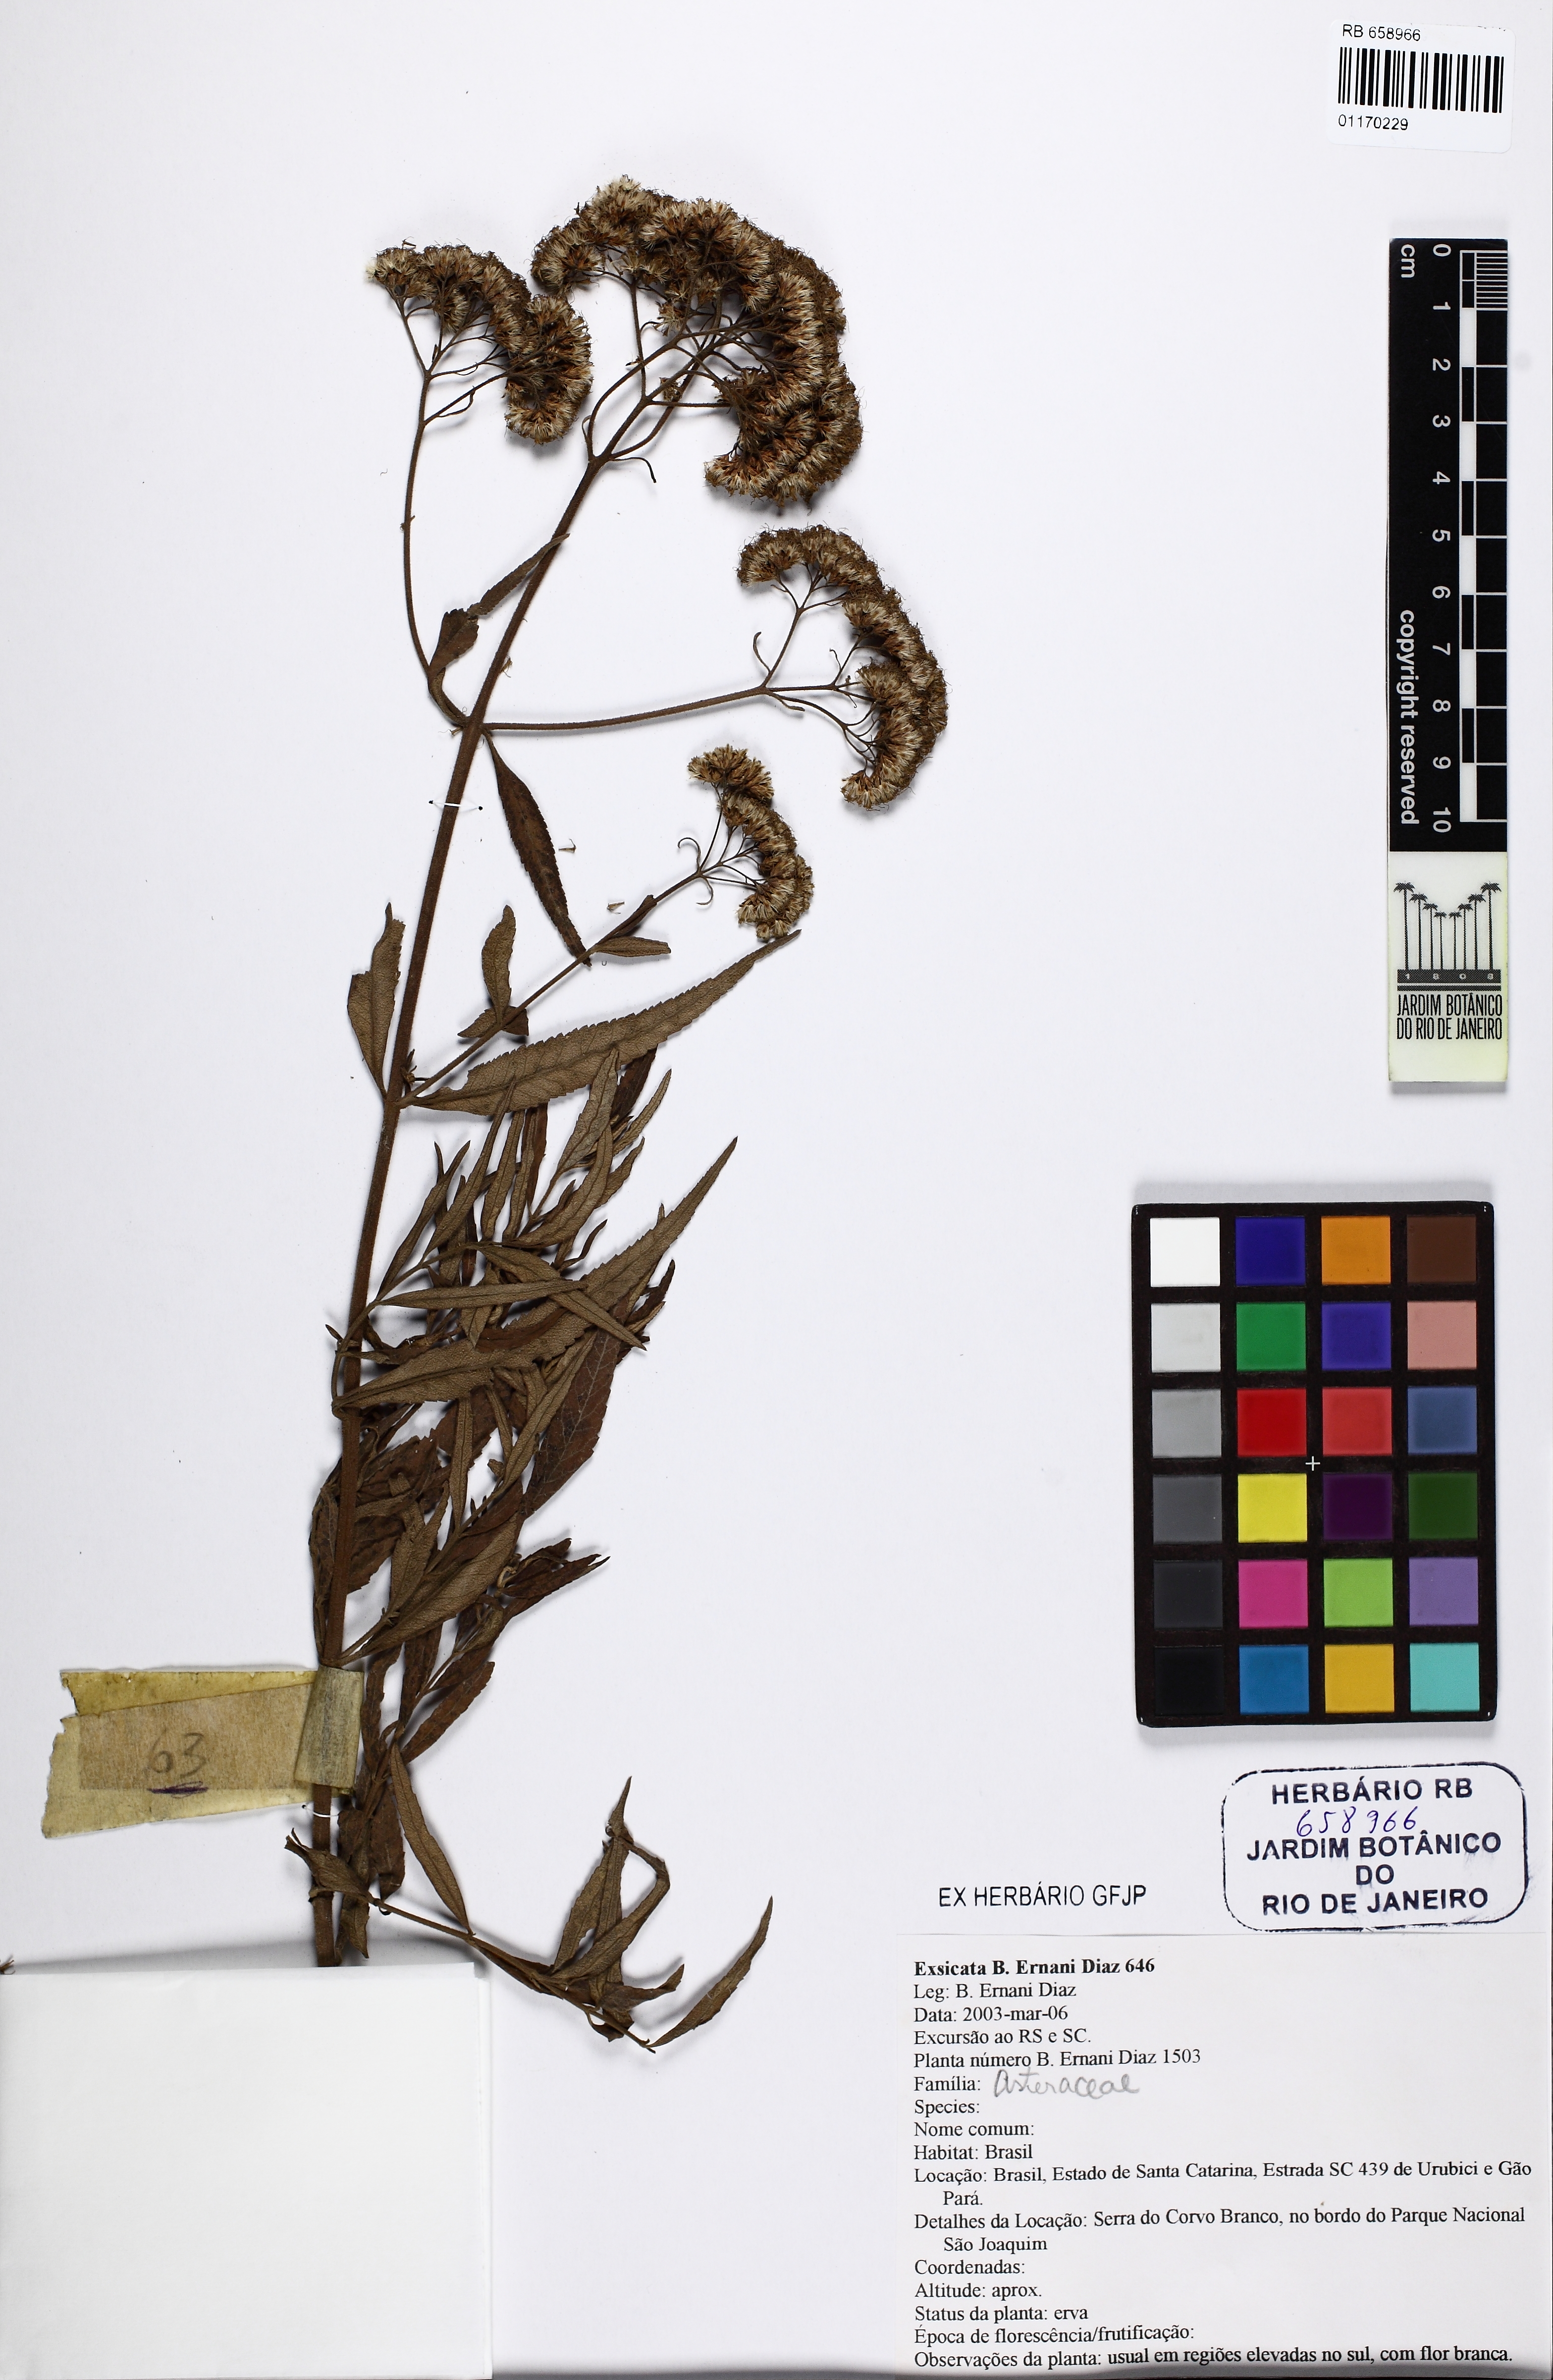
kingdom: Plantae
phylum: Tracheophyta
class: Magnoliopsida
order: Asterales
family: Asteraceae
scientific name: Asteraceae
